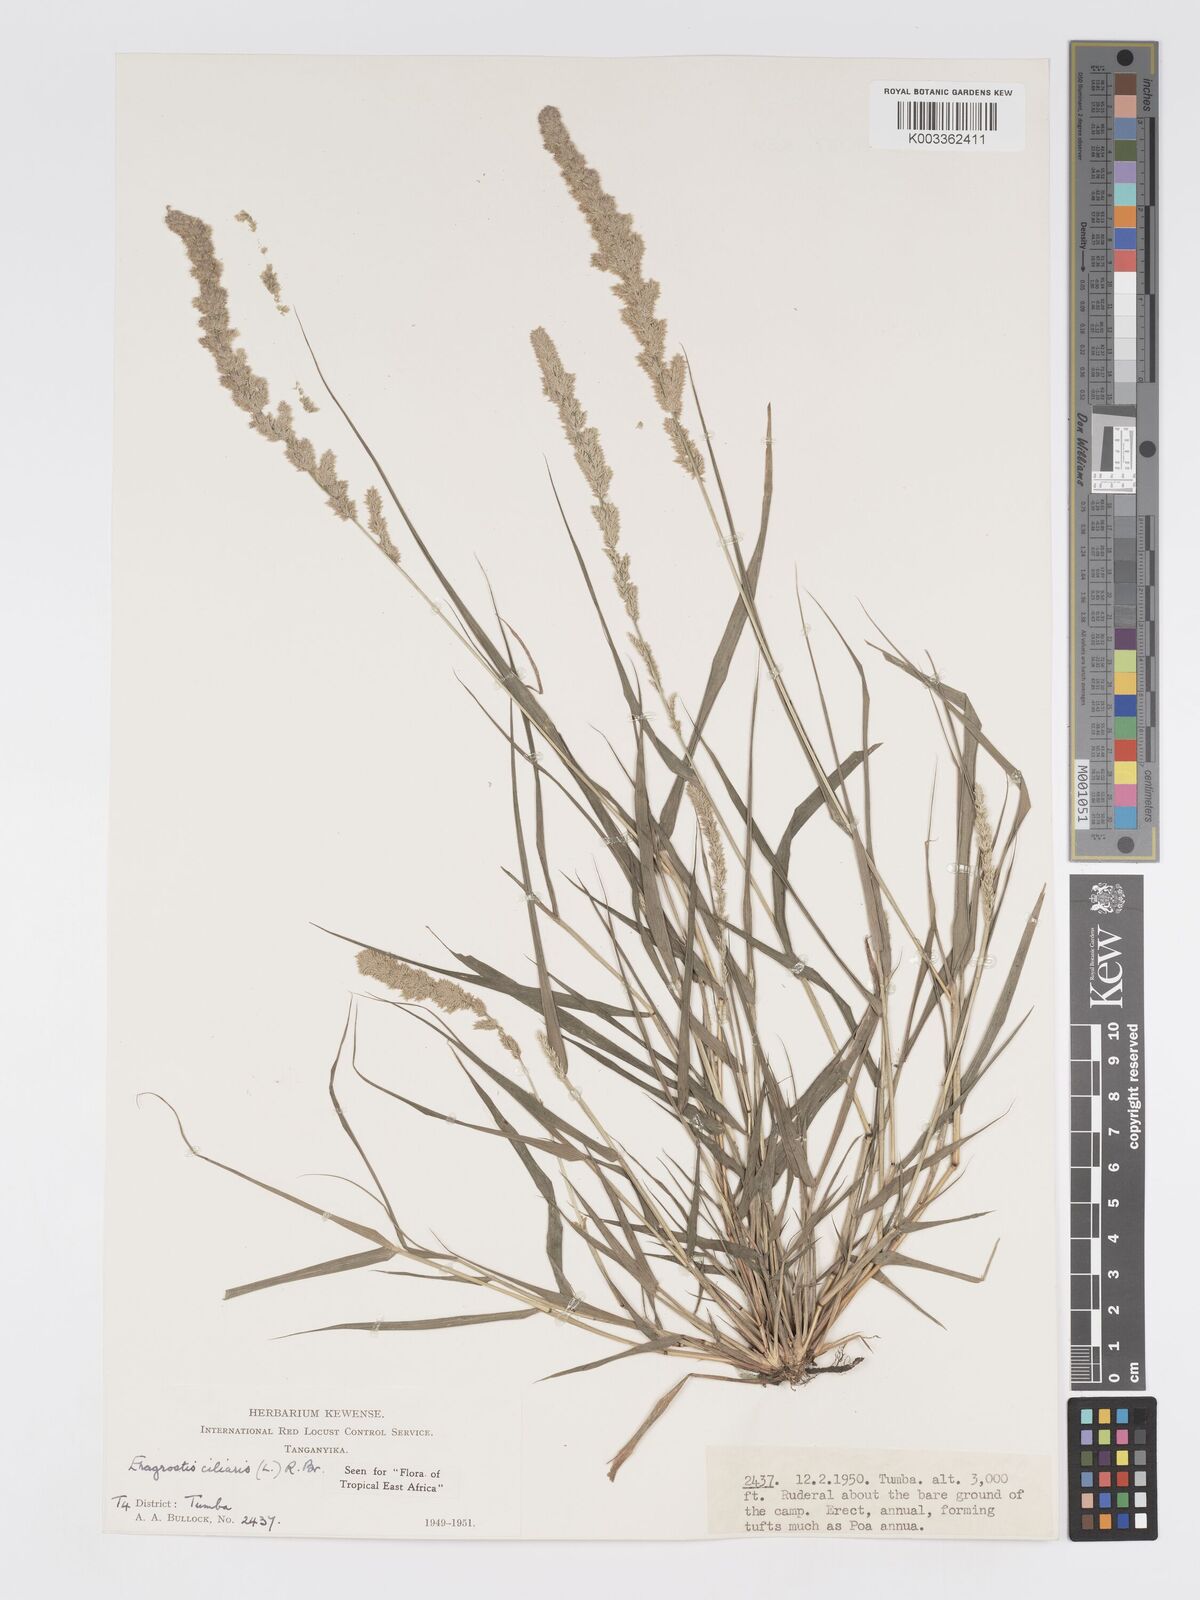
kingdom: Plantae
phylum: Tracheophyta
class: Liliopsida
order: Poales
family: Poaceae
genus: Eragrostis
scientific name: Eragrostis ciliaris
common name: Gophertail lovegrass
